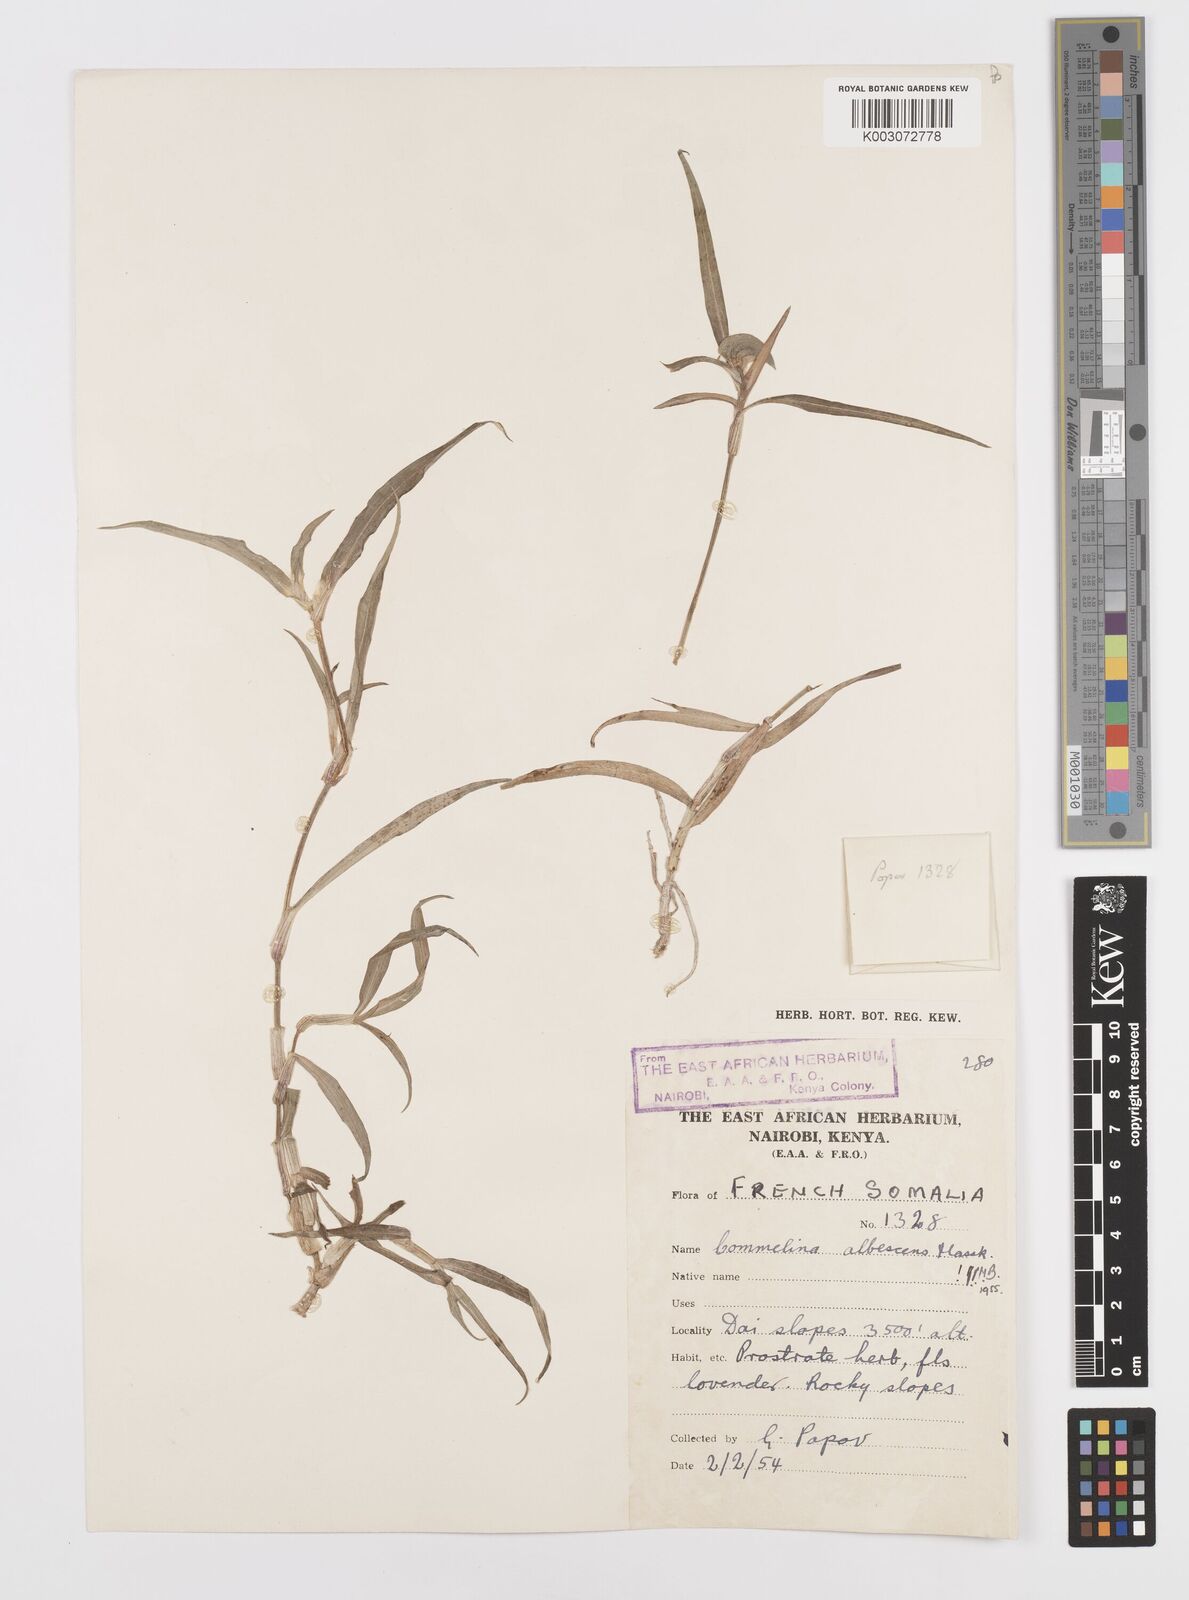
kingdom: Plantae
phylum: Tracheophyta
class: Liliopsida
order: Commelinales
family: Commelinaceae
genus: Commelina
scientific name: Commelina albescens
